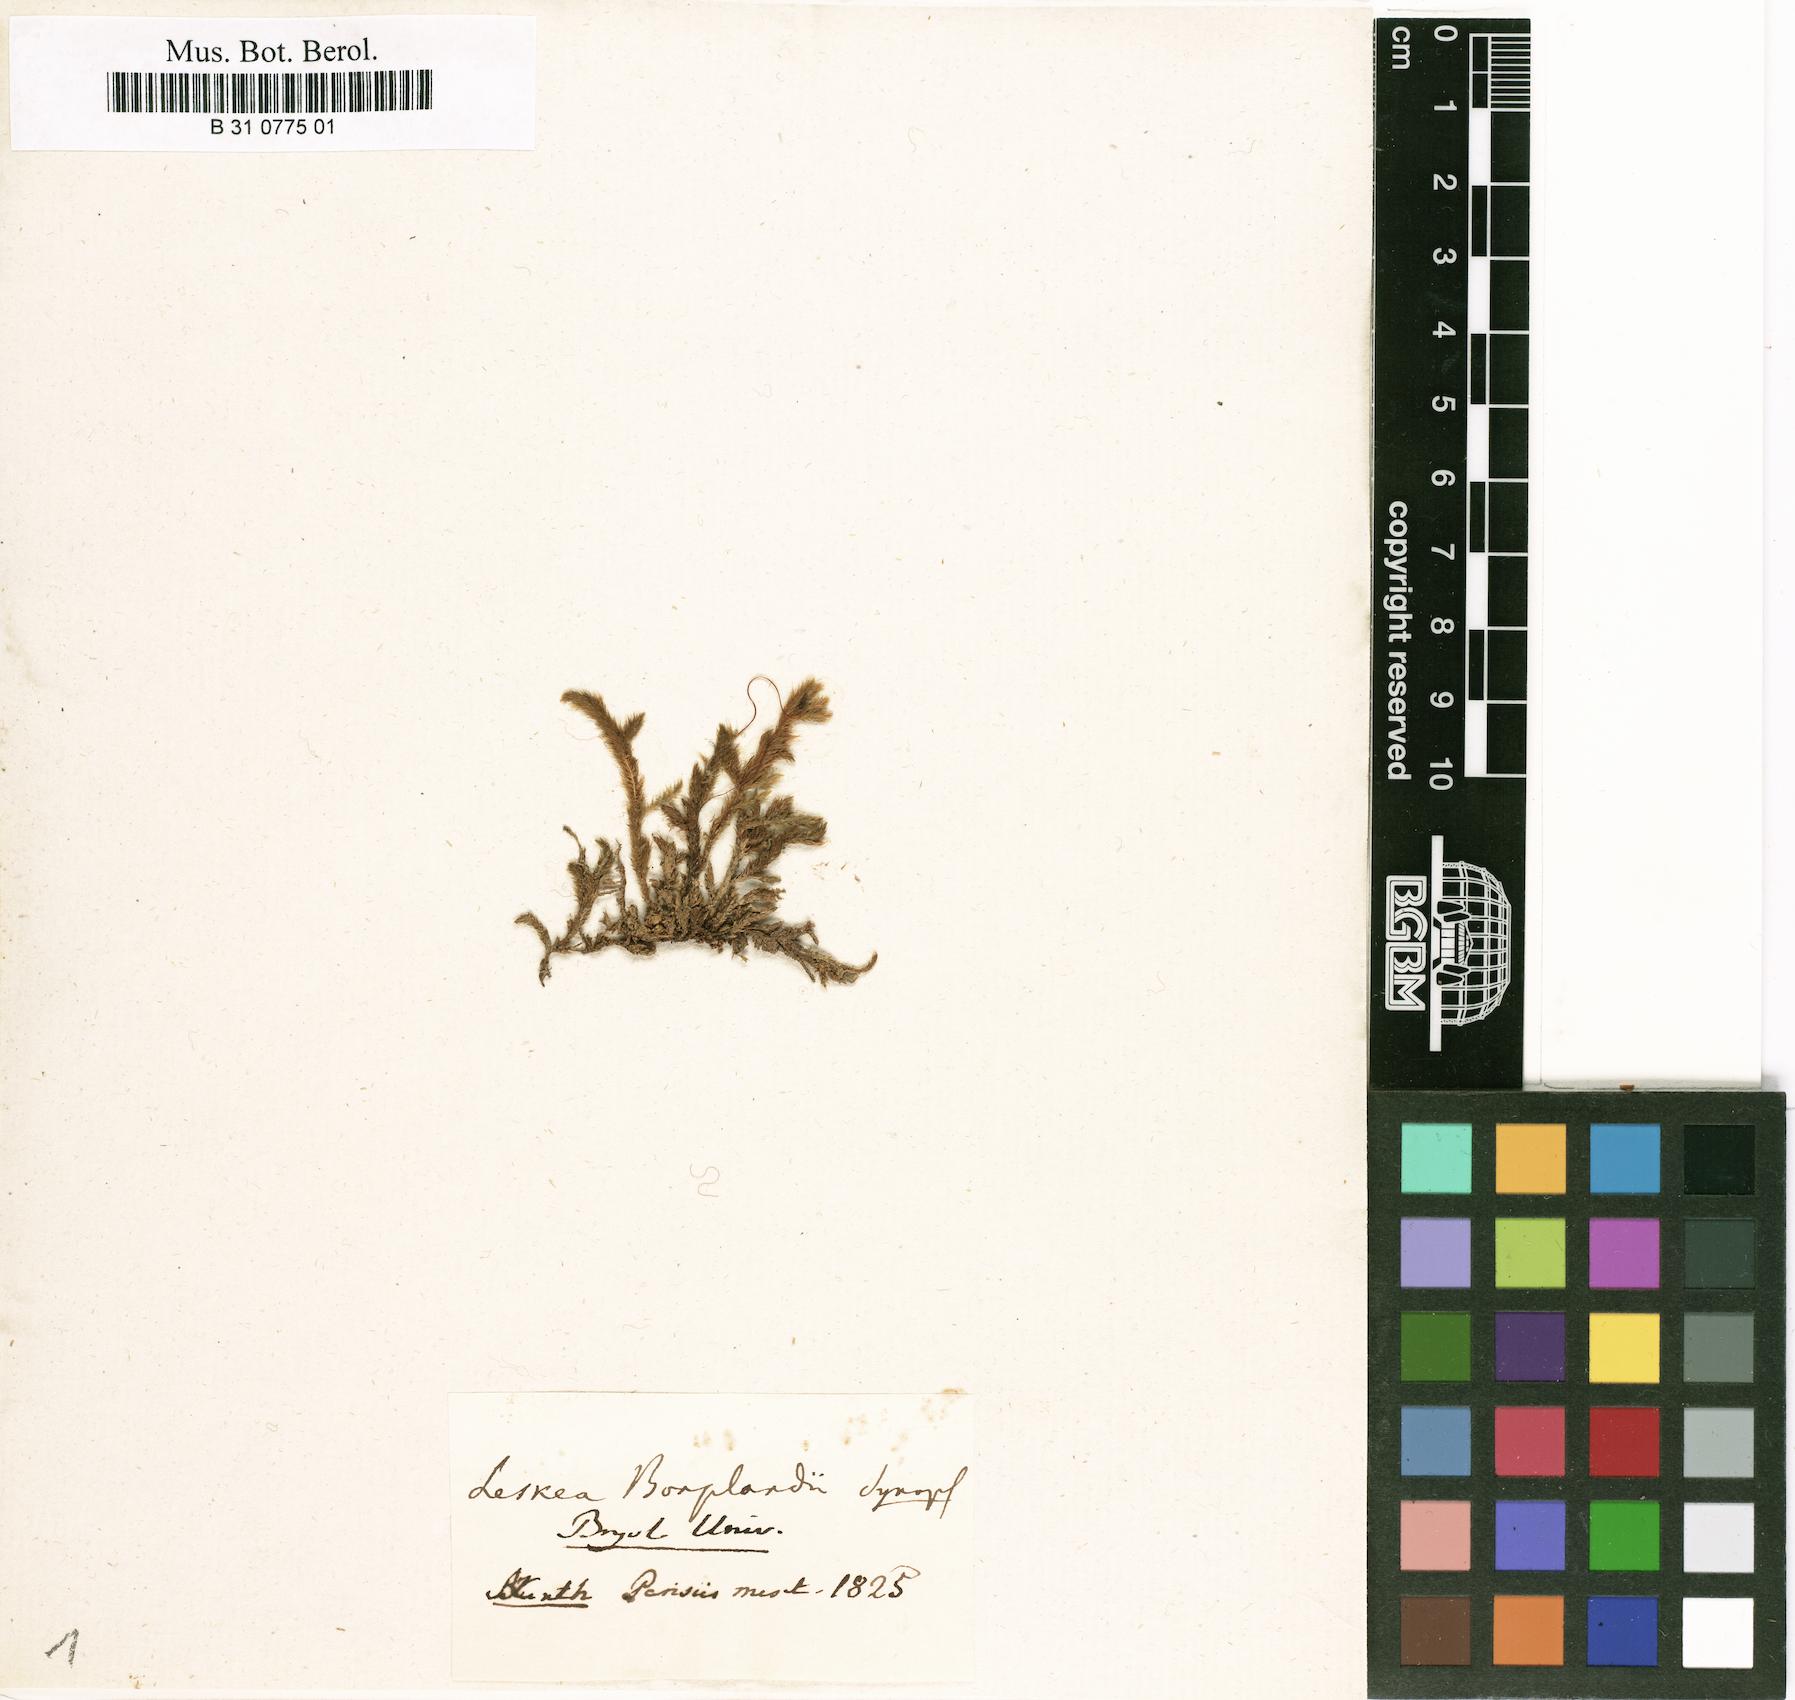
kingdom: Plantae
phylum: Bryophyta
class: Bryopsida
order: Hypnales
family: Brachytheciaceae
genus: Palamocladium
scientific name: Palamocladium leskeoides
